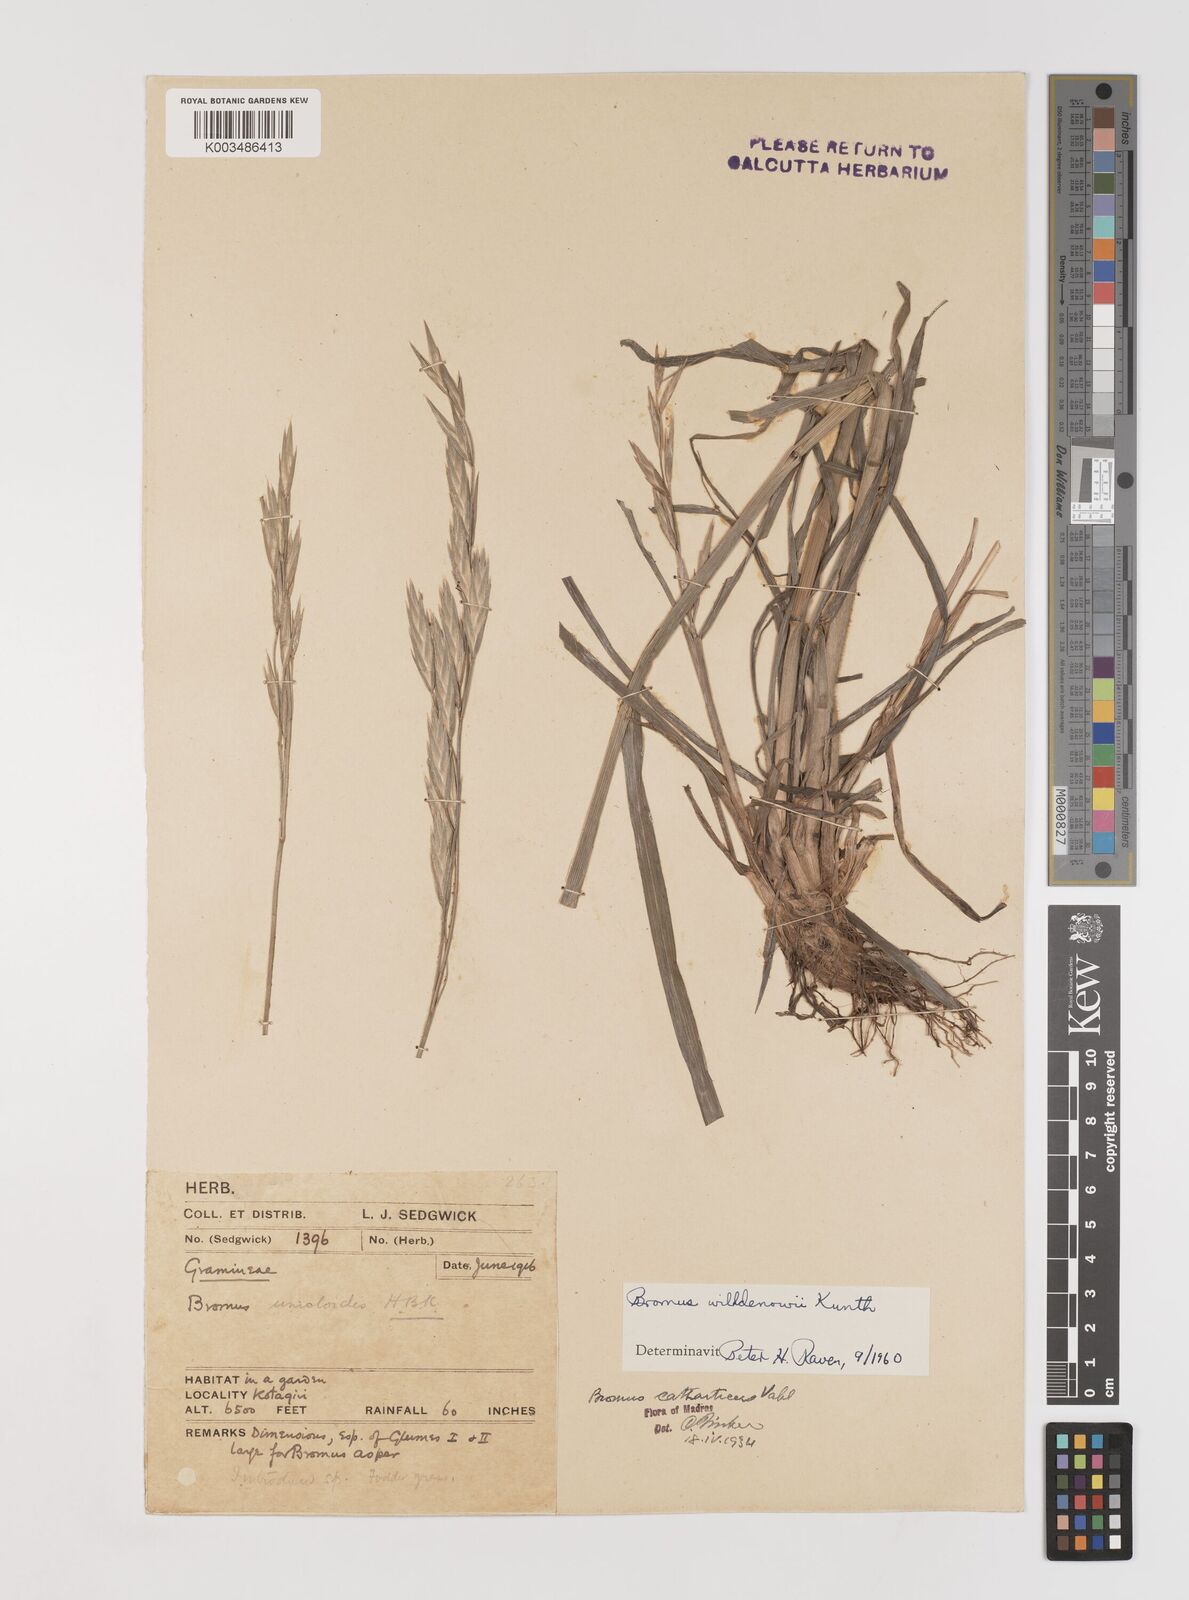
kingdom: Plantae
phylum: Tracheophyta
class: Liliopsida
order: Poales
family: Poaceae
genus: Bromus
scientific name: Bromus catharticus
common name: Rescuegrass
